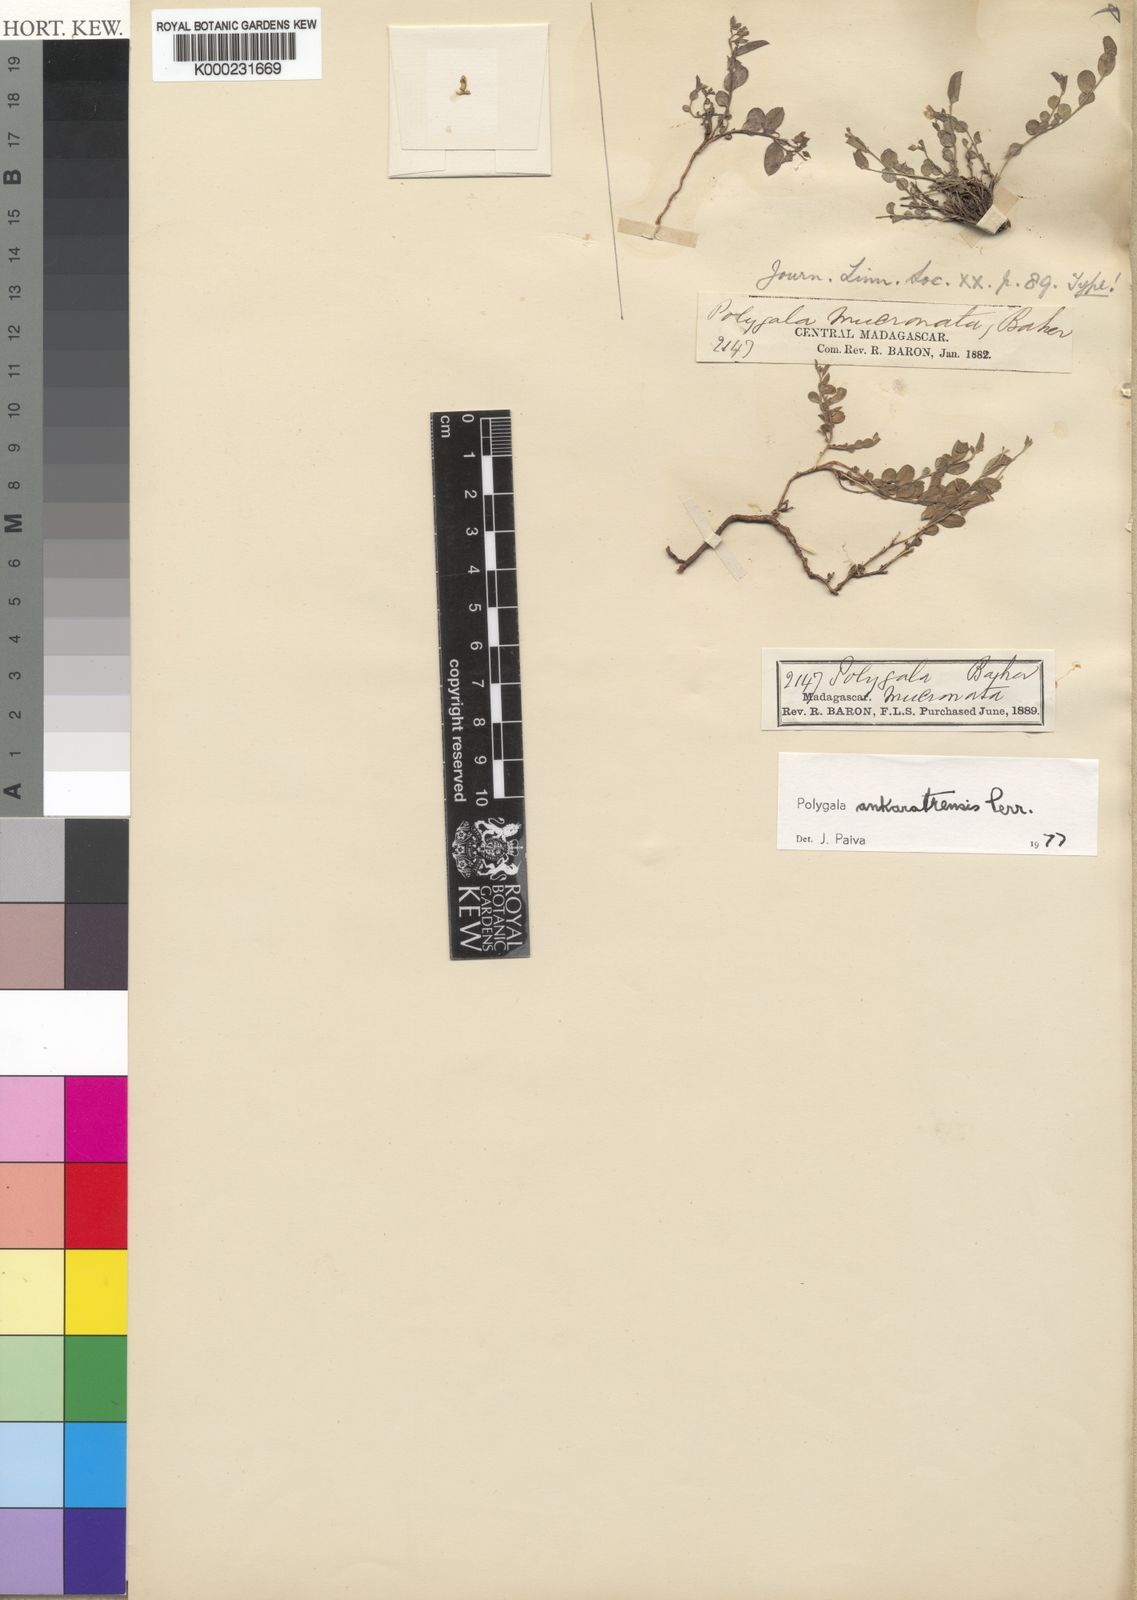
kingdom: Plantae
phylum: Tracheophyta
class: Magnoliopsida
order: Fabales
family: Polygalaceae
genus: Polygala
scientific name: Polygala ankaratrensis
